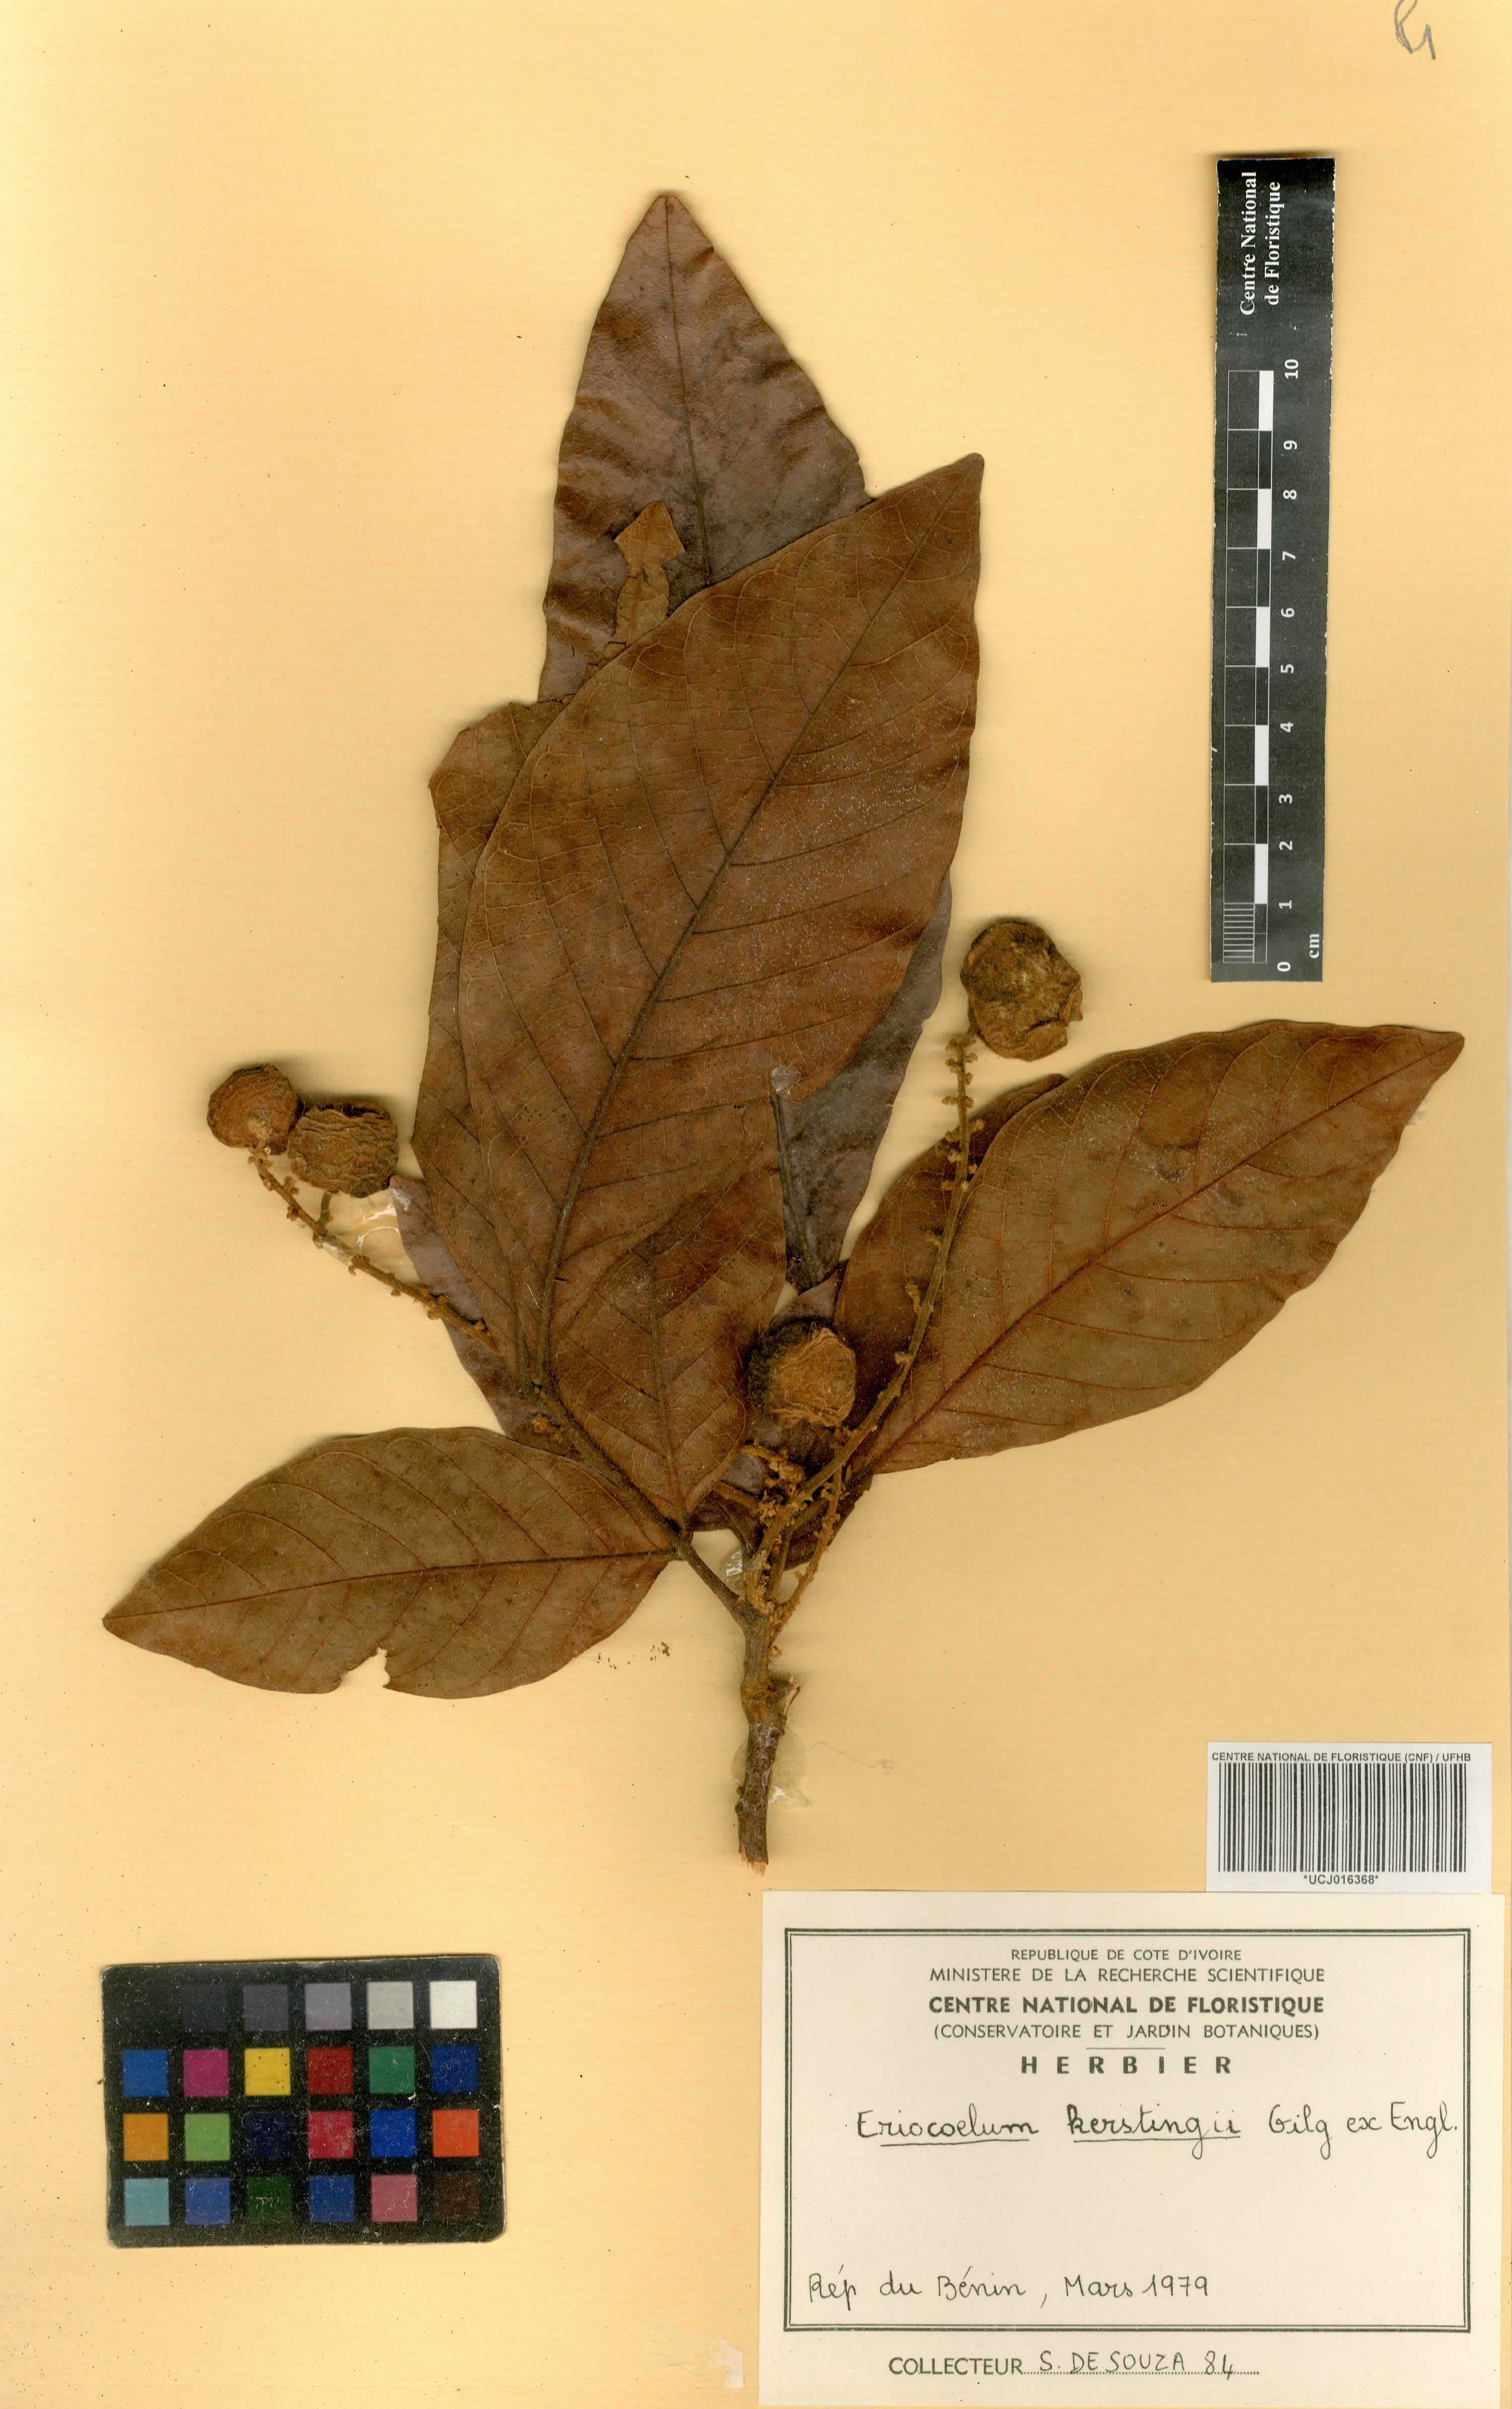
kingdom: Plantae
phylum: Tracheophyta
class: Magnoliopsida
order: Sapindales
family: Sapindaceae
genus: Eriocoelum
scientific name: Eriocoelum kerstingii
